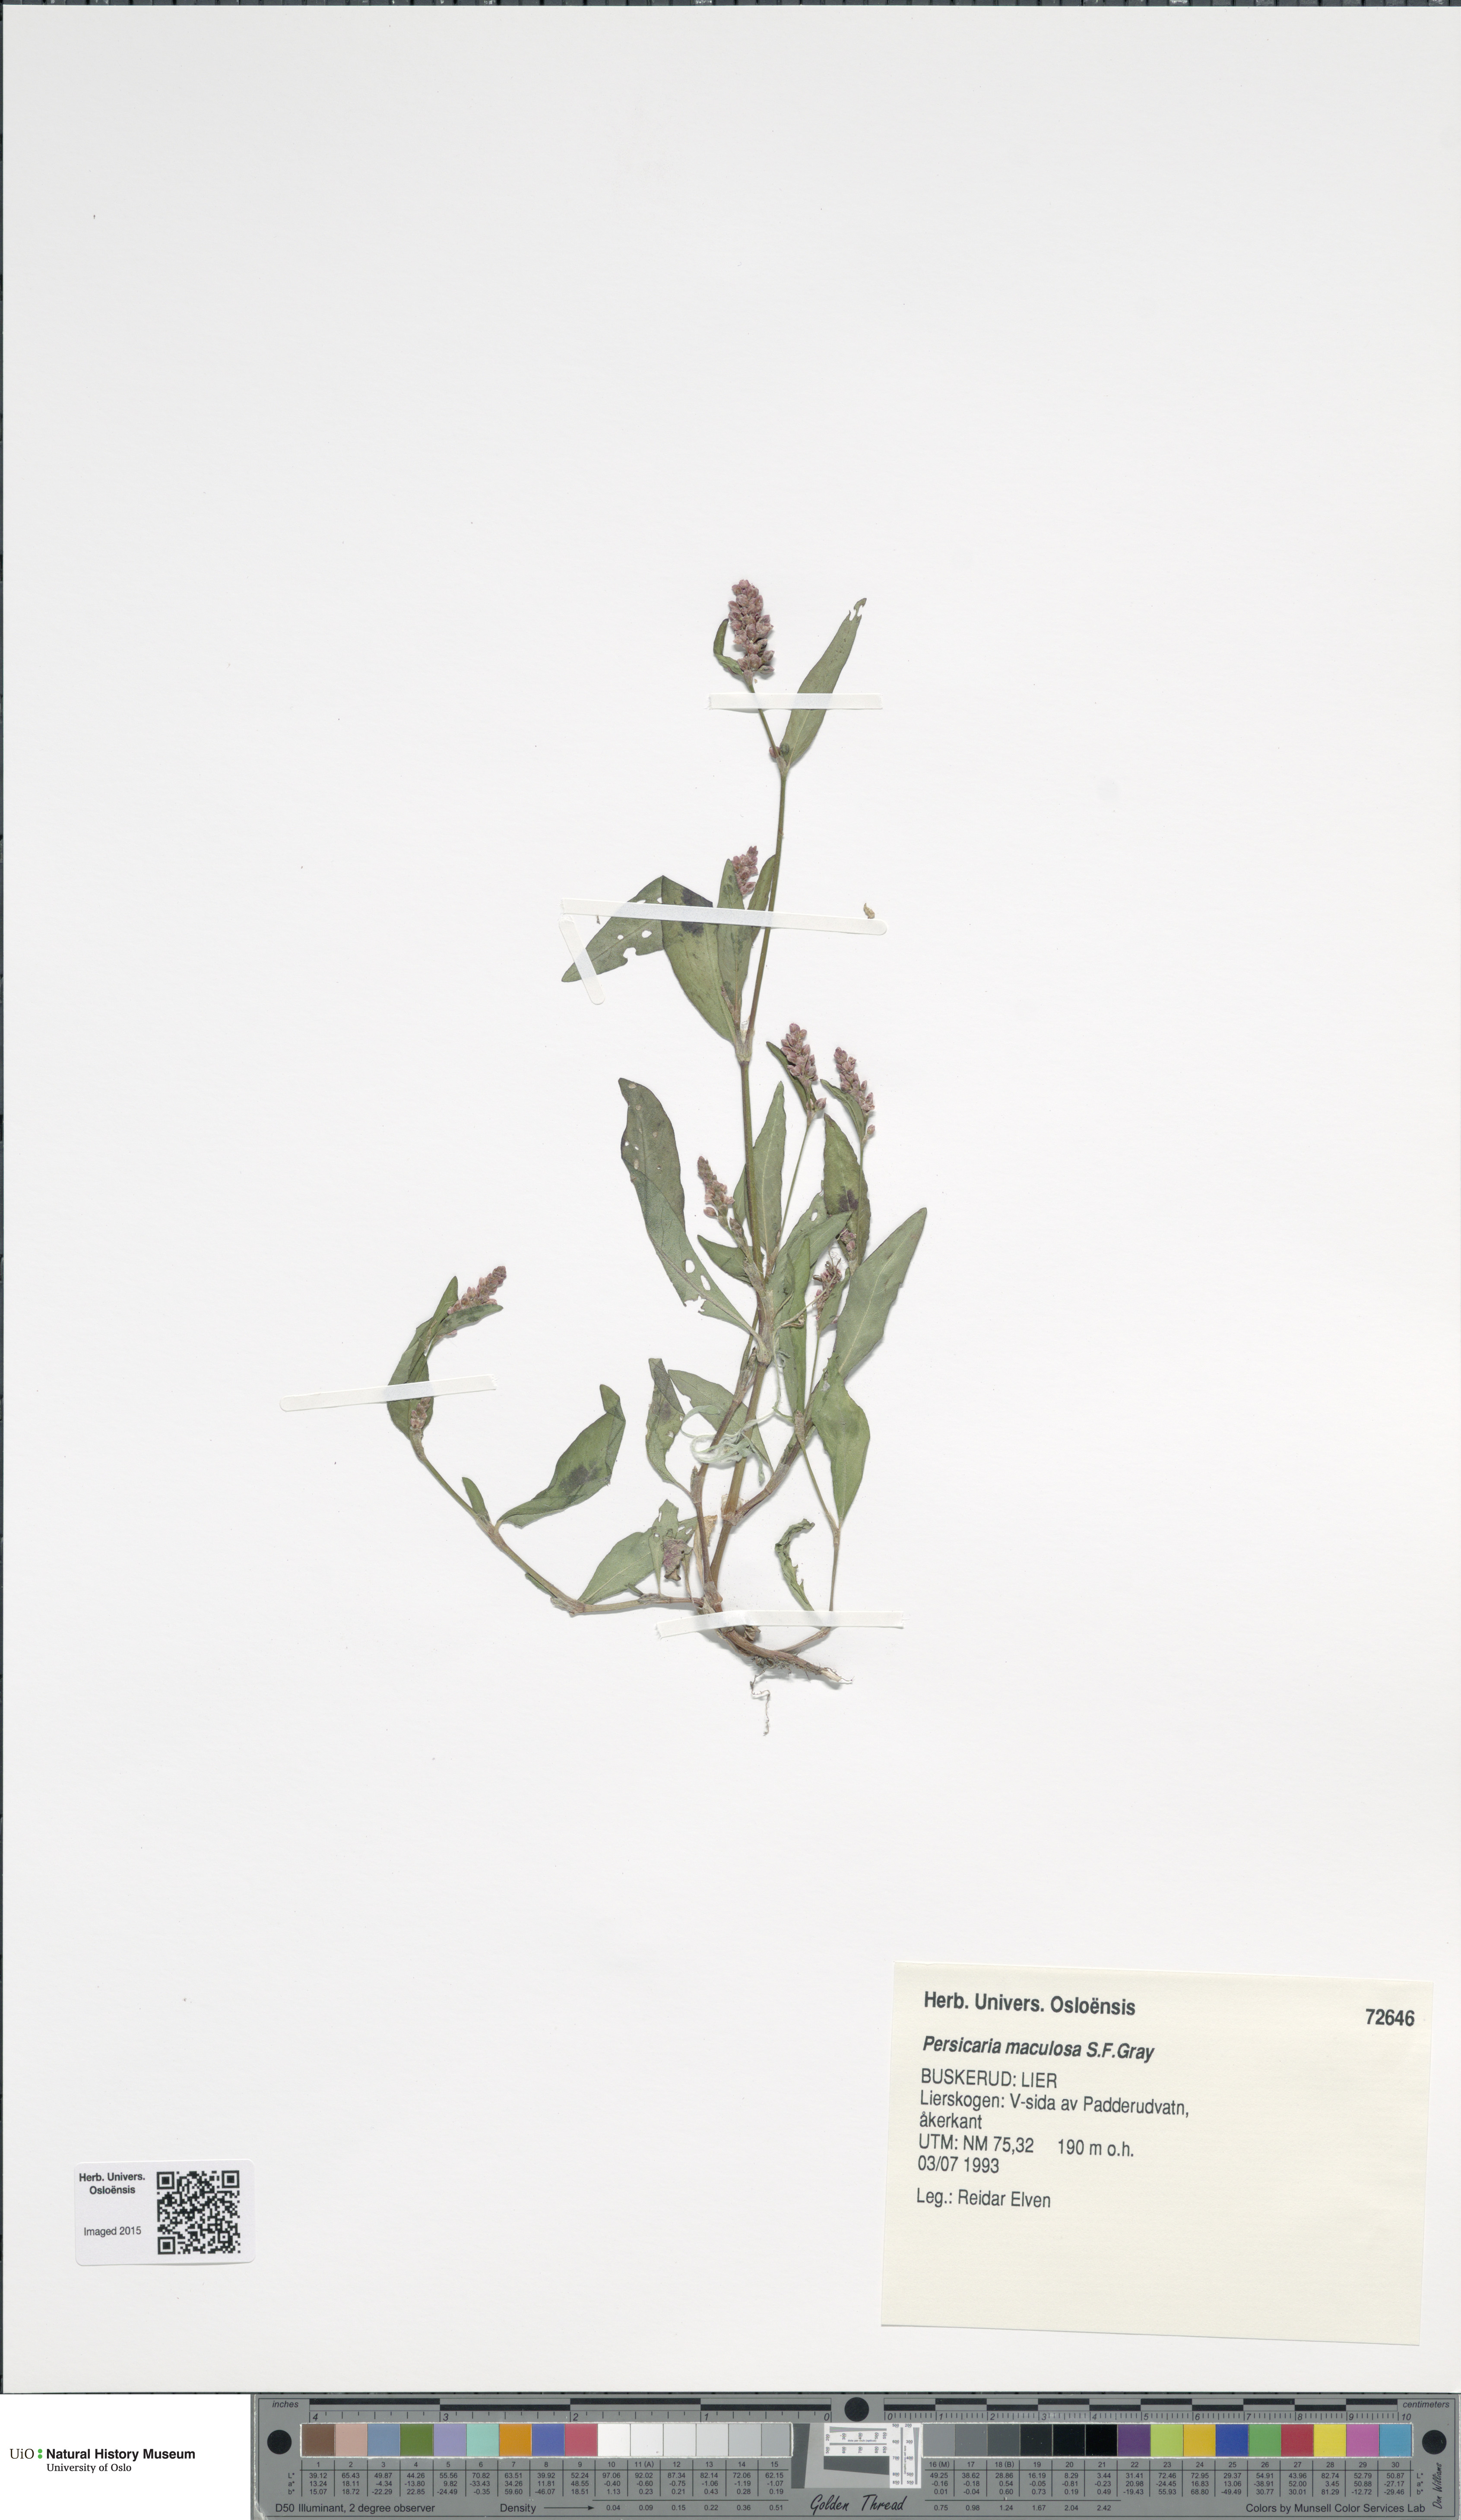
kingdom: Plantae
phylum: Tracheophyta
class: Magnoliopsida
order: Caryophyllales
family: Polygonaceae
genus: Persicaria
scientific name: Persicaria maculosa
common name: Redshank
